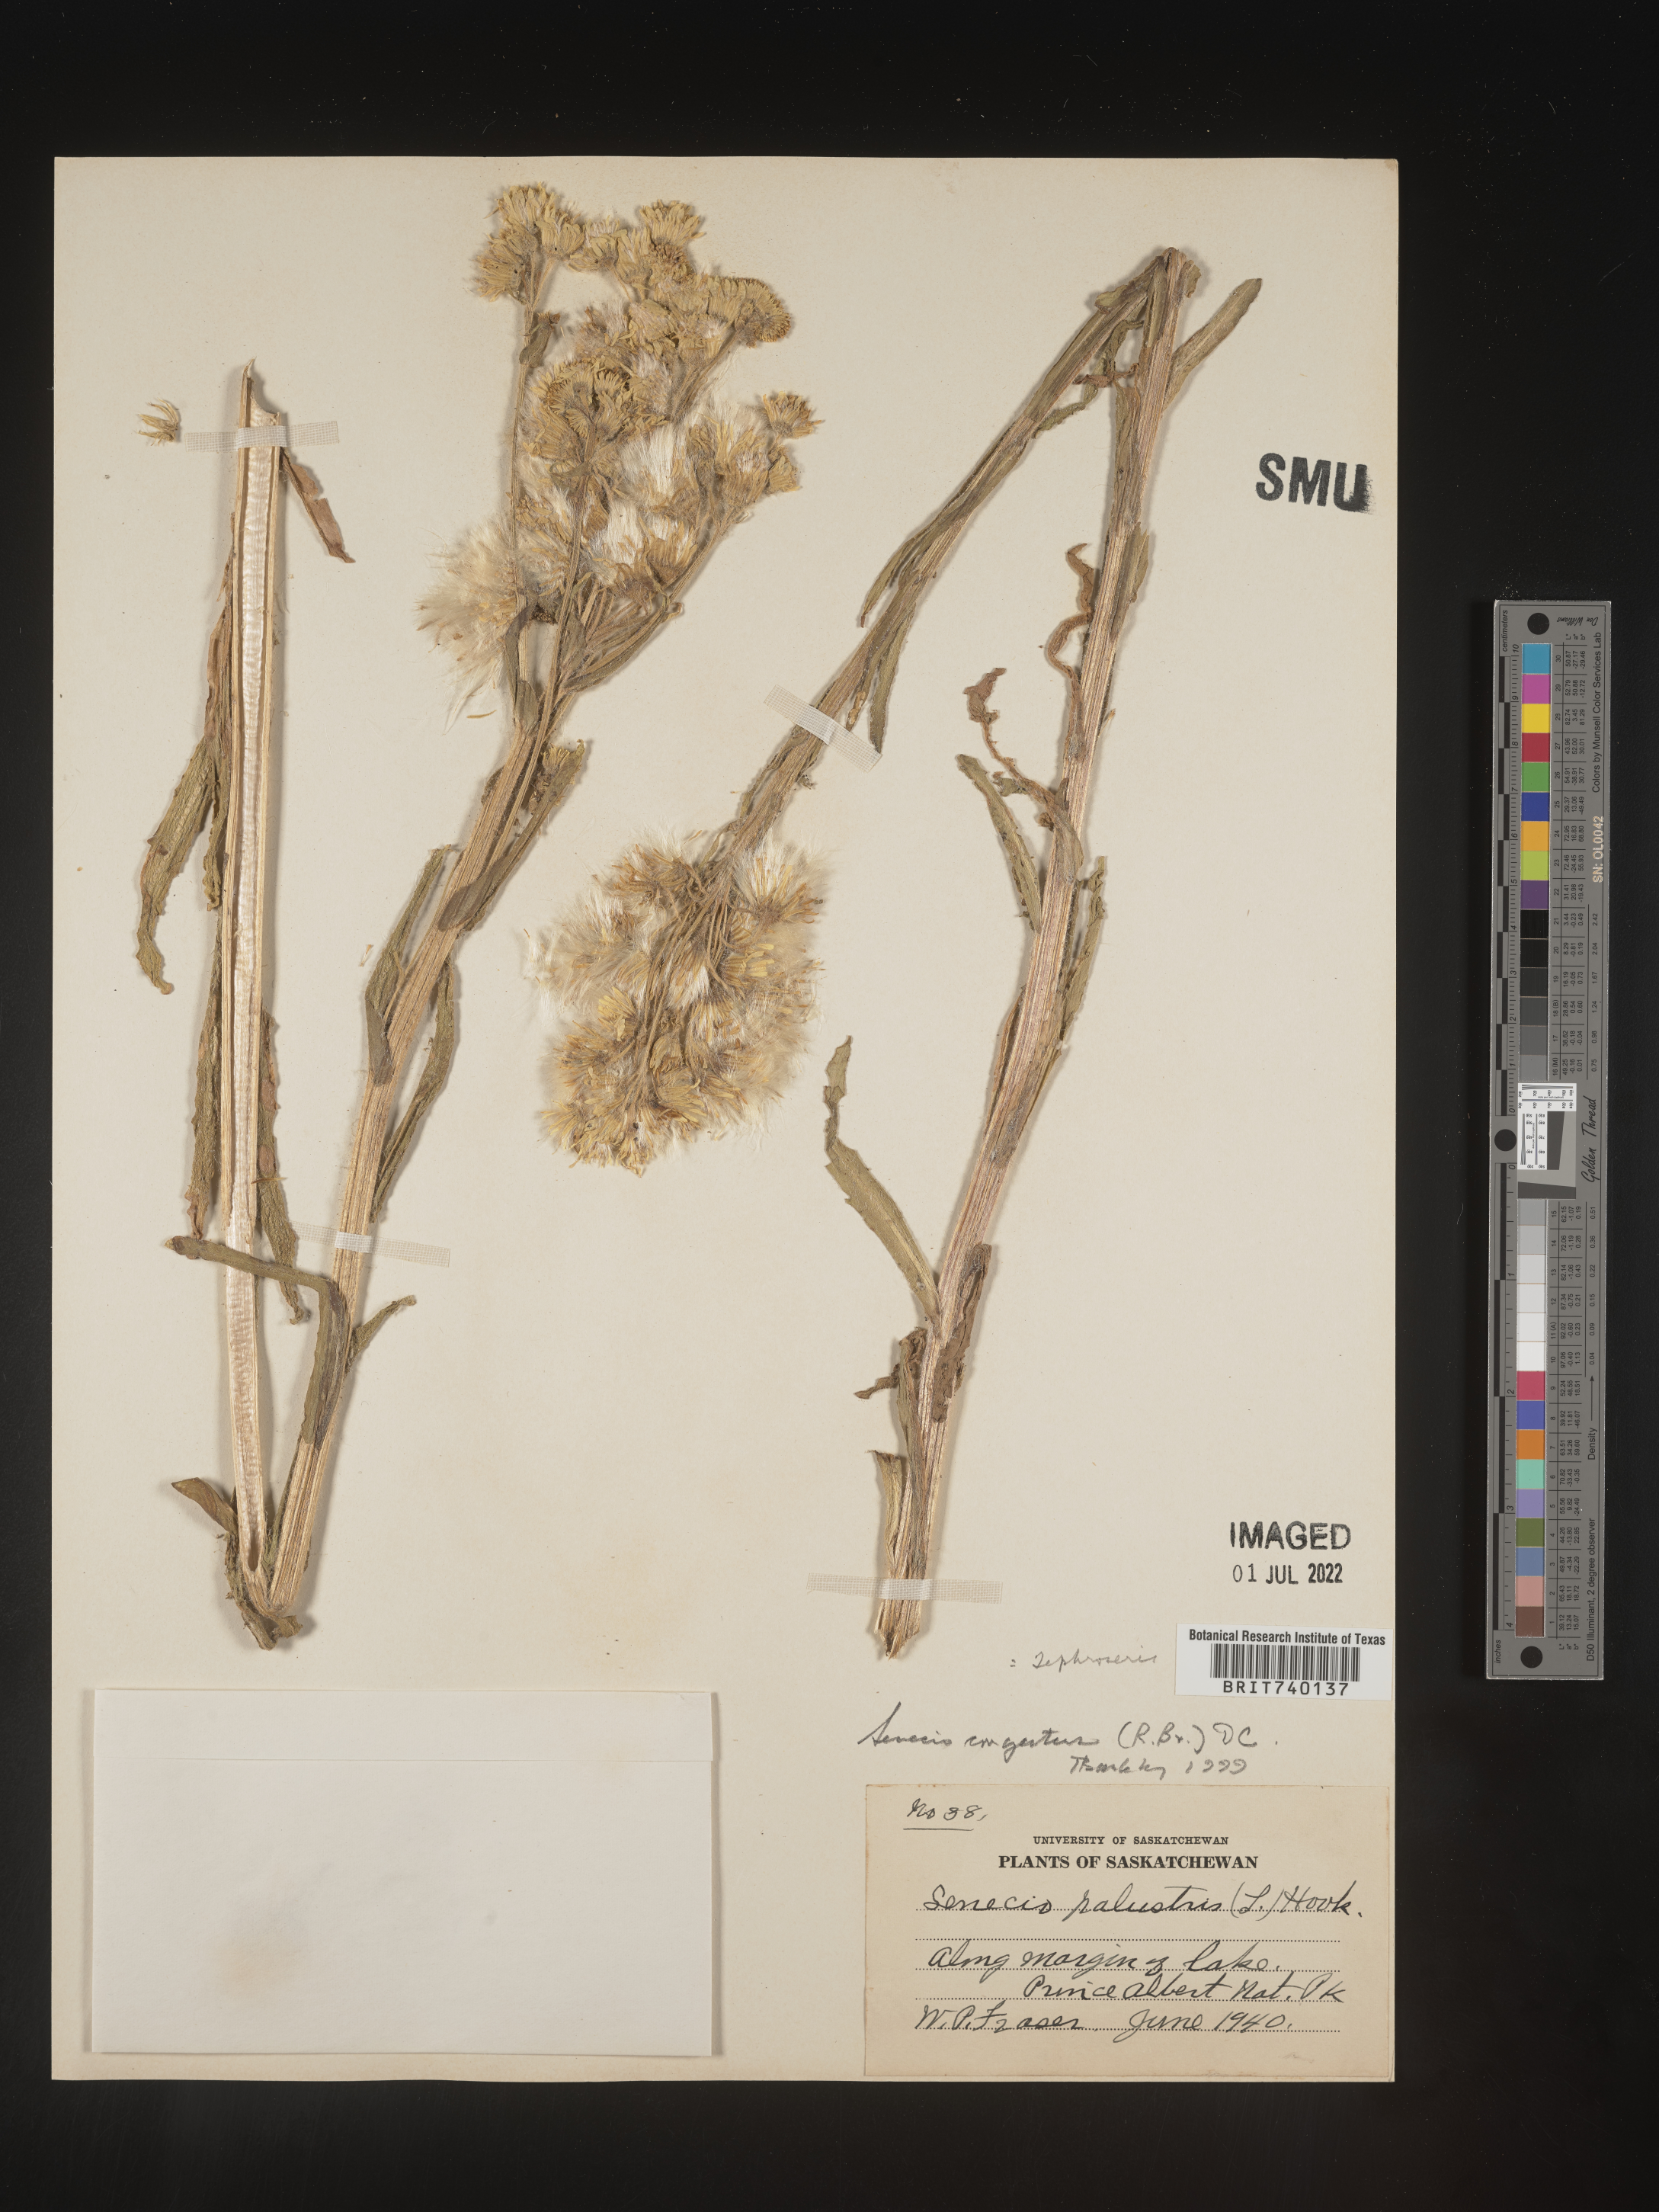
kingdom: Plantae
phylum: Tracheophyta
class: Magnoliopsida
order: Asterales
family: Asteraceae
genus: Tephroseris
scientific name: Tephroseris palustris
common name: Marsh fleawort
